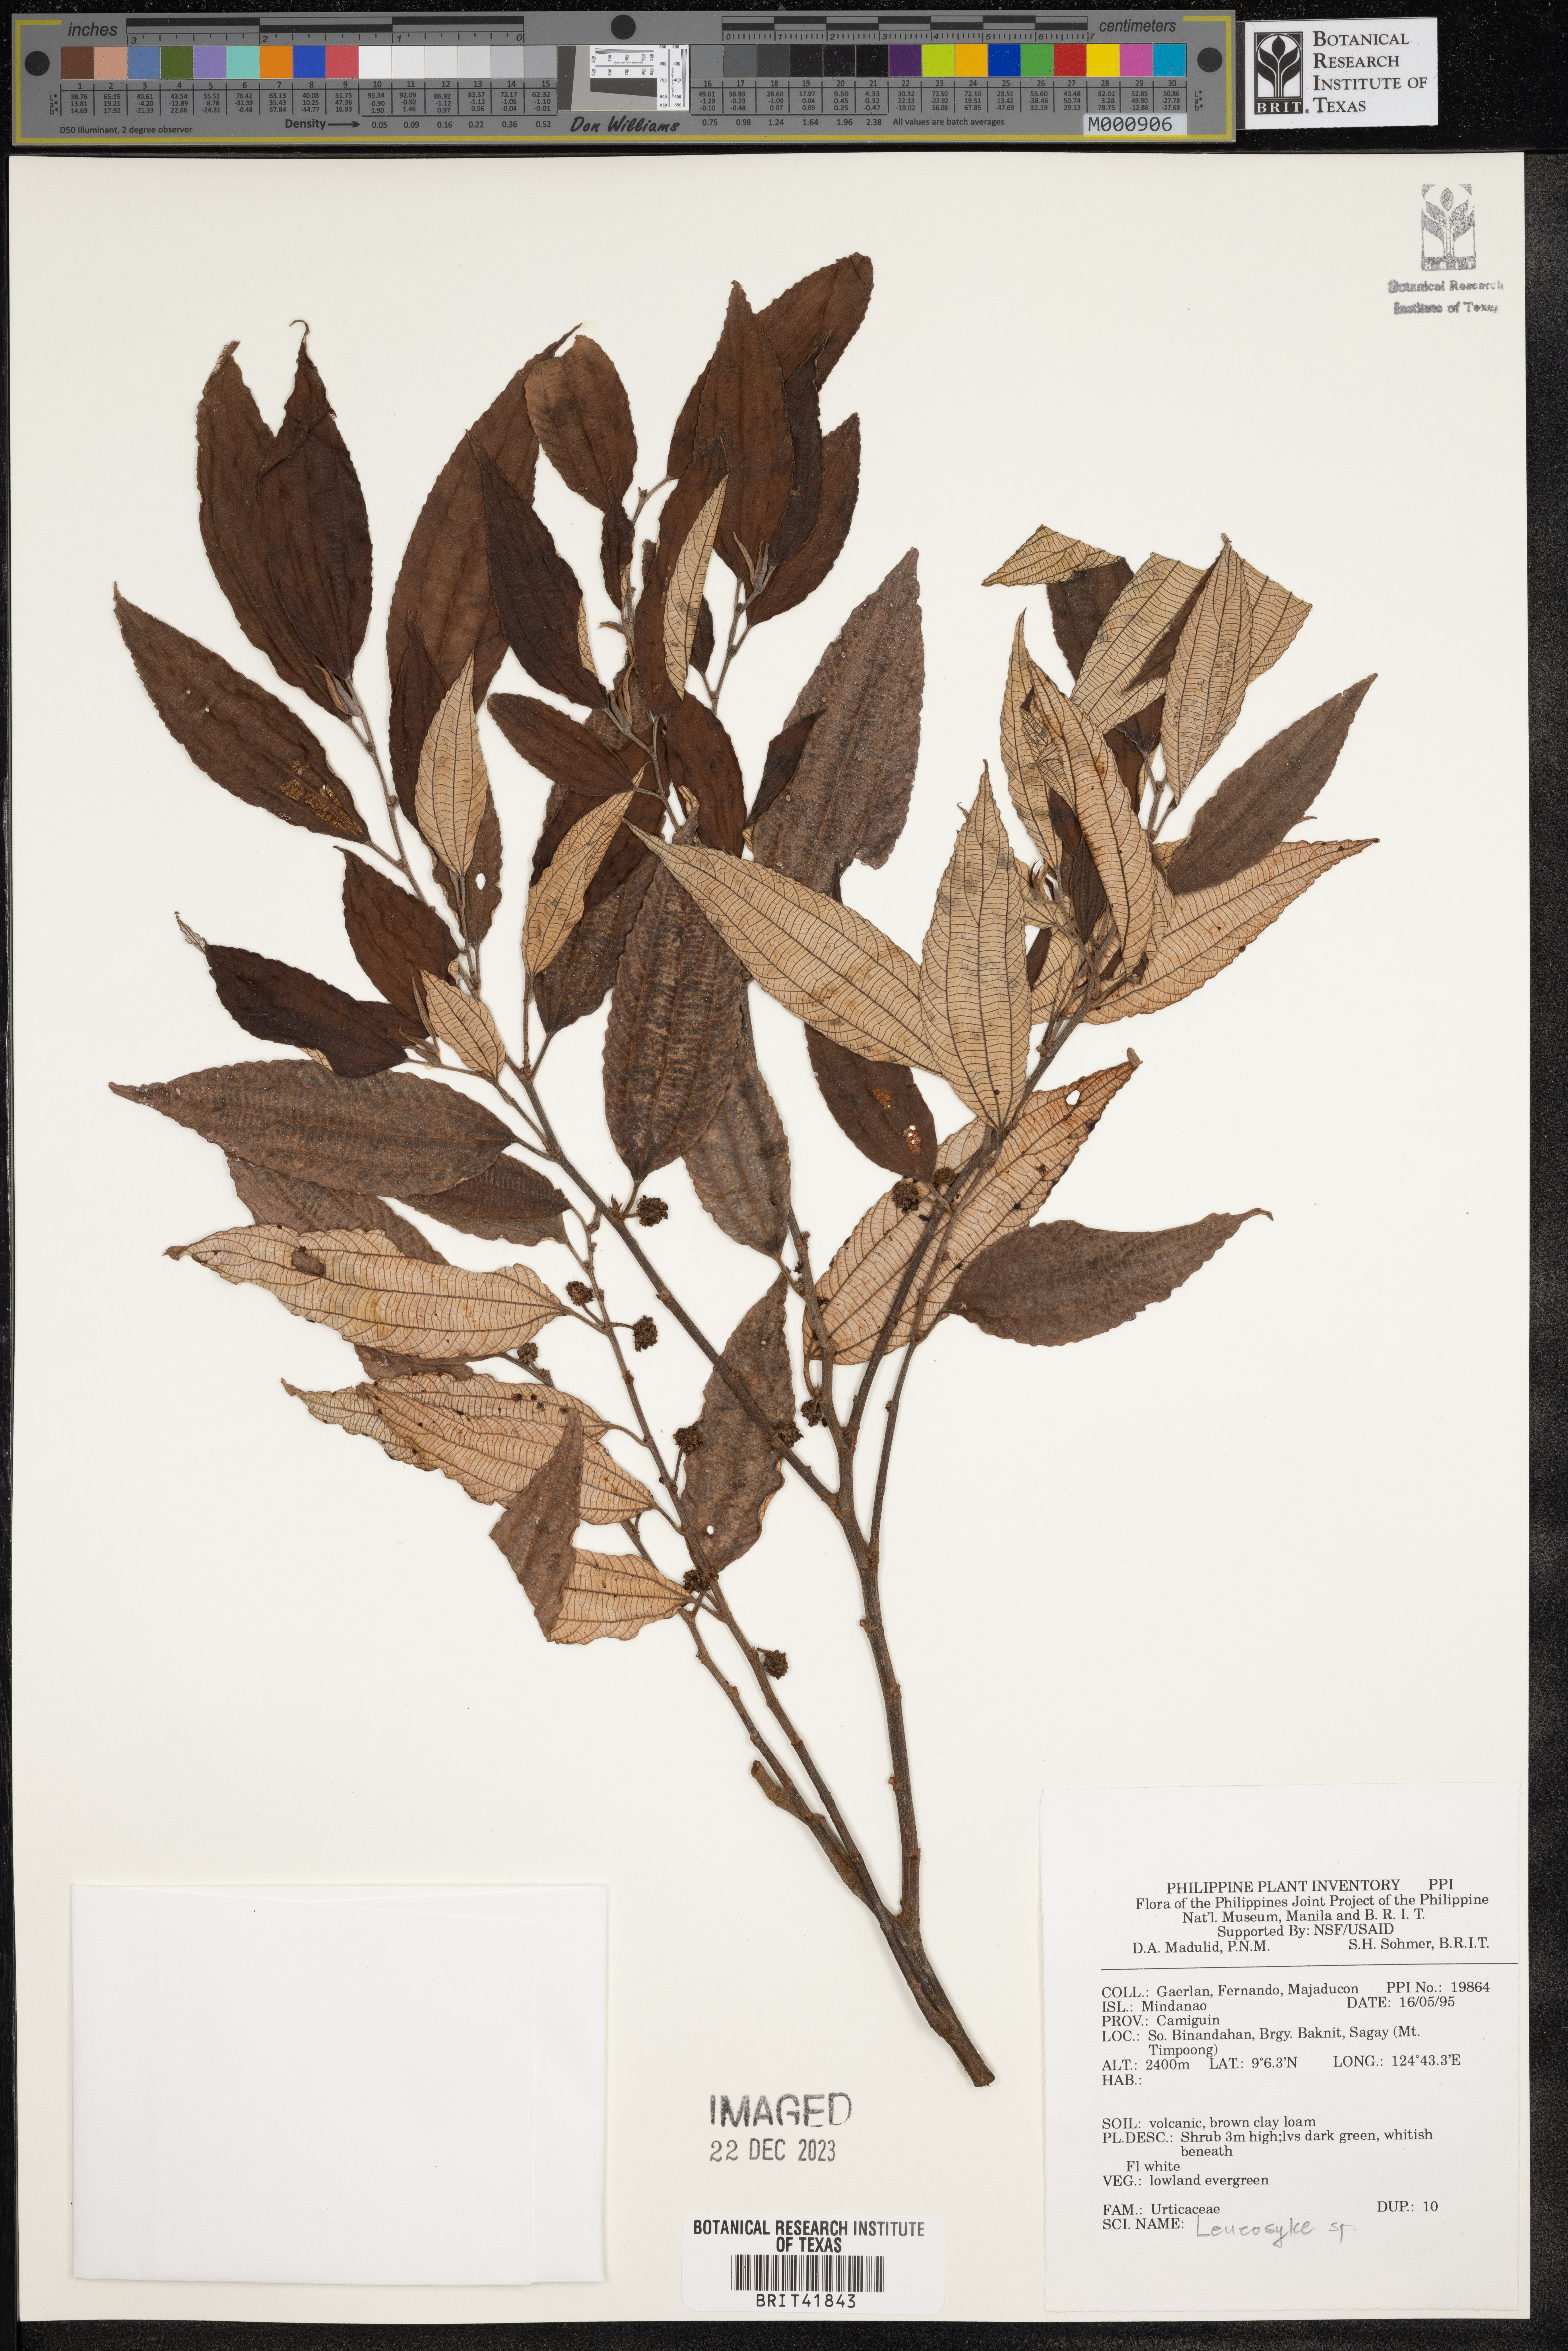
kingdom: Plantae
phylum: Tracheophyta
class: Magnoliopsida
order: Rosales
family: Urticaceae
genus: Leucosyke
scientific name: Leucosyke
